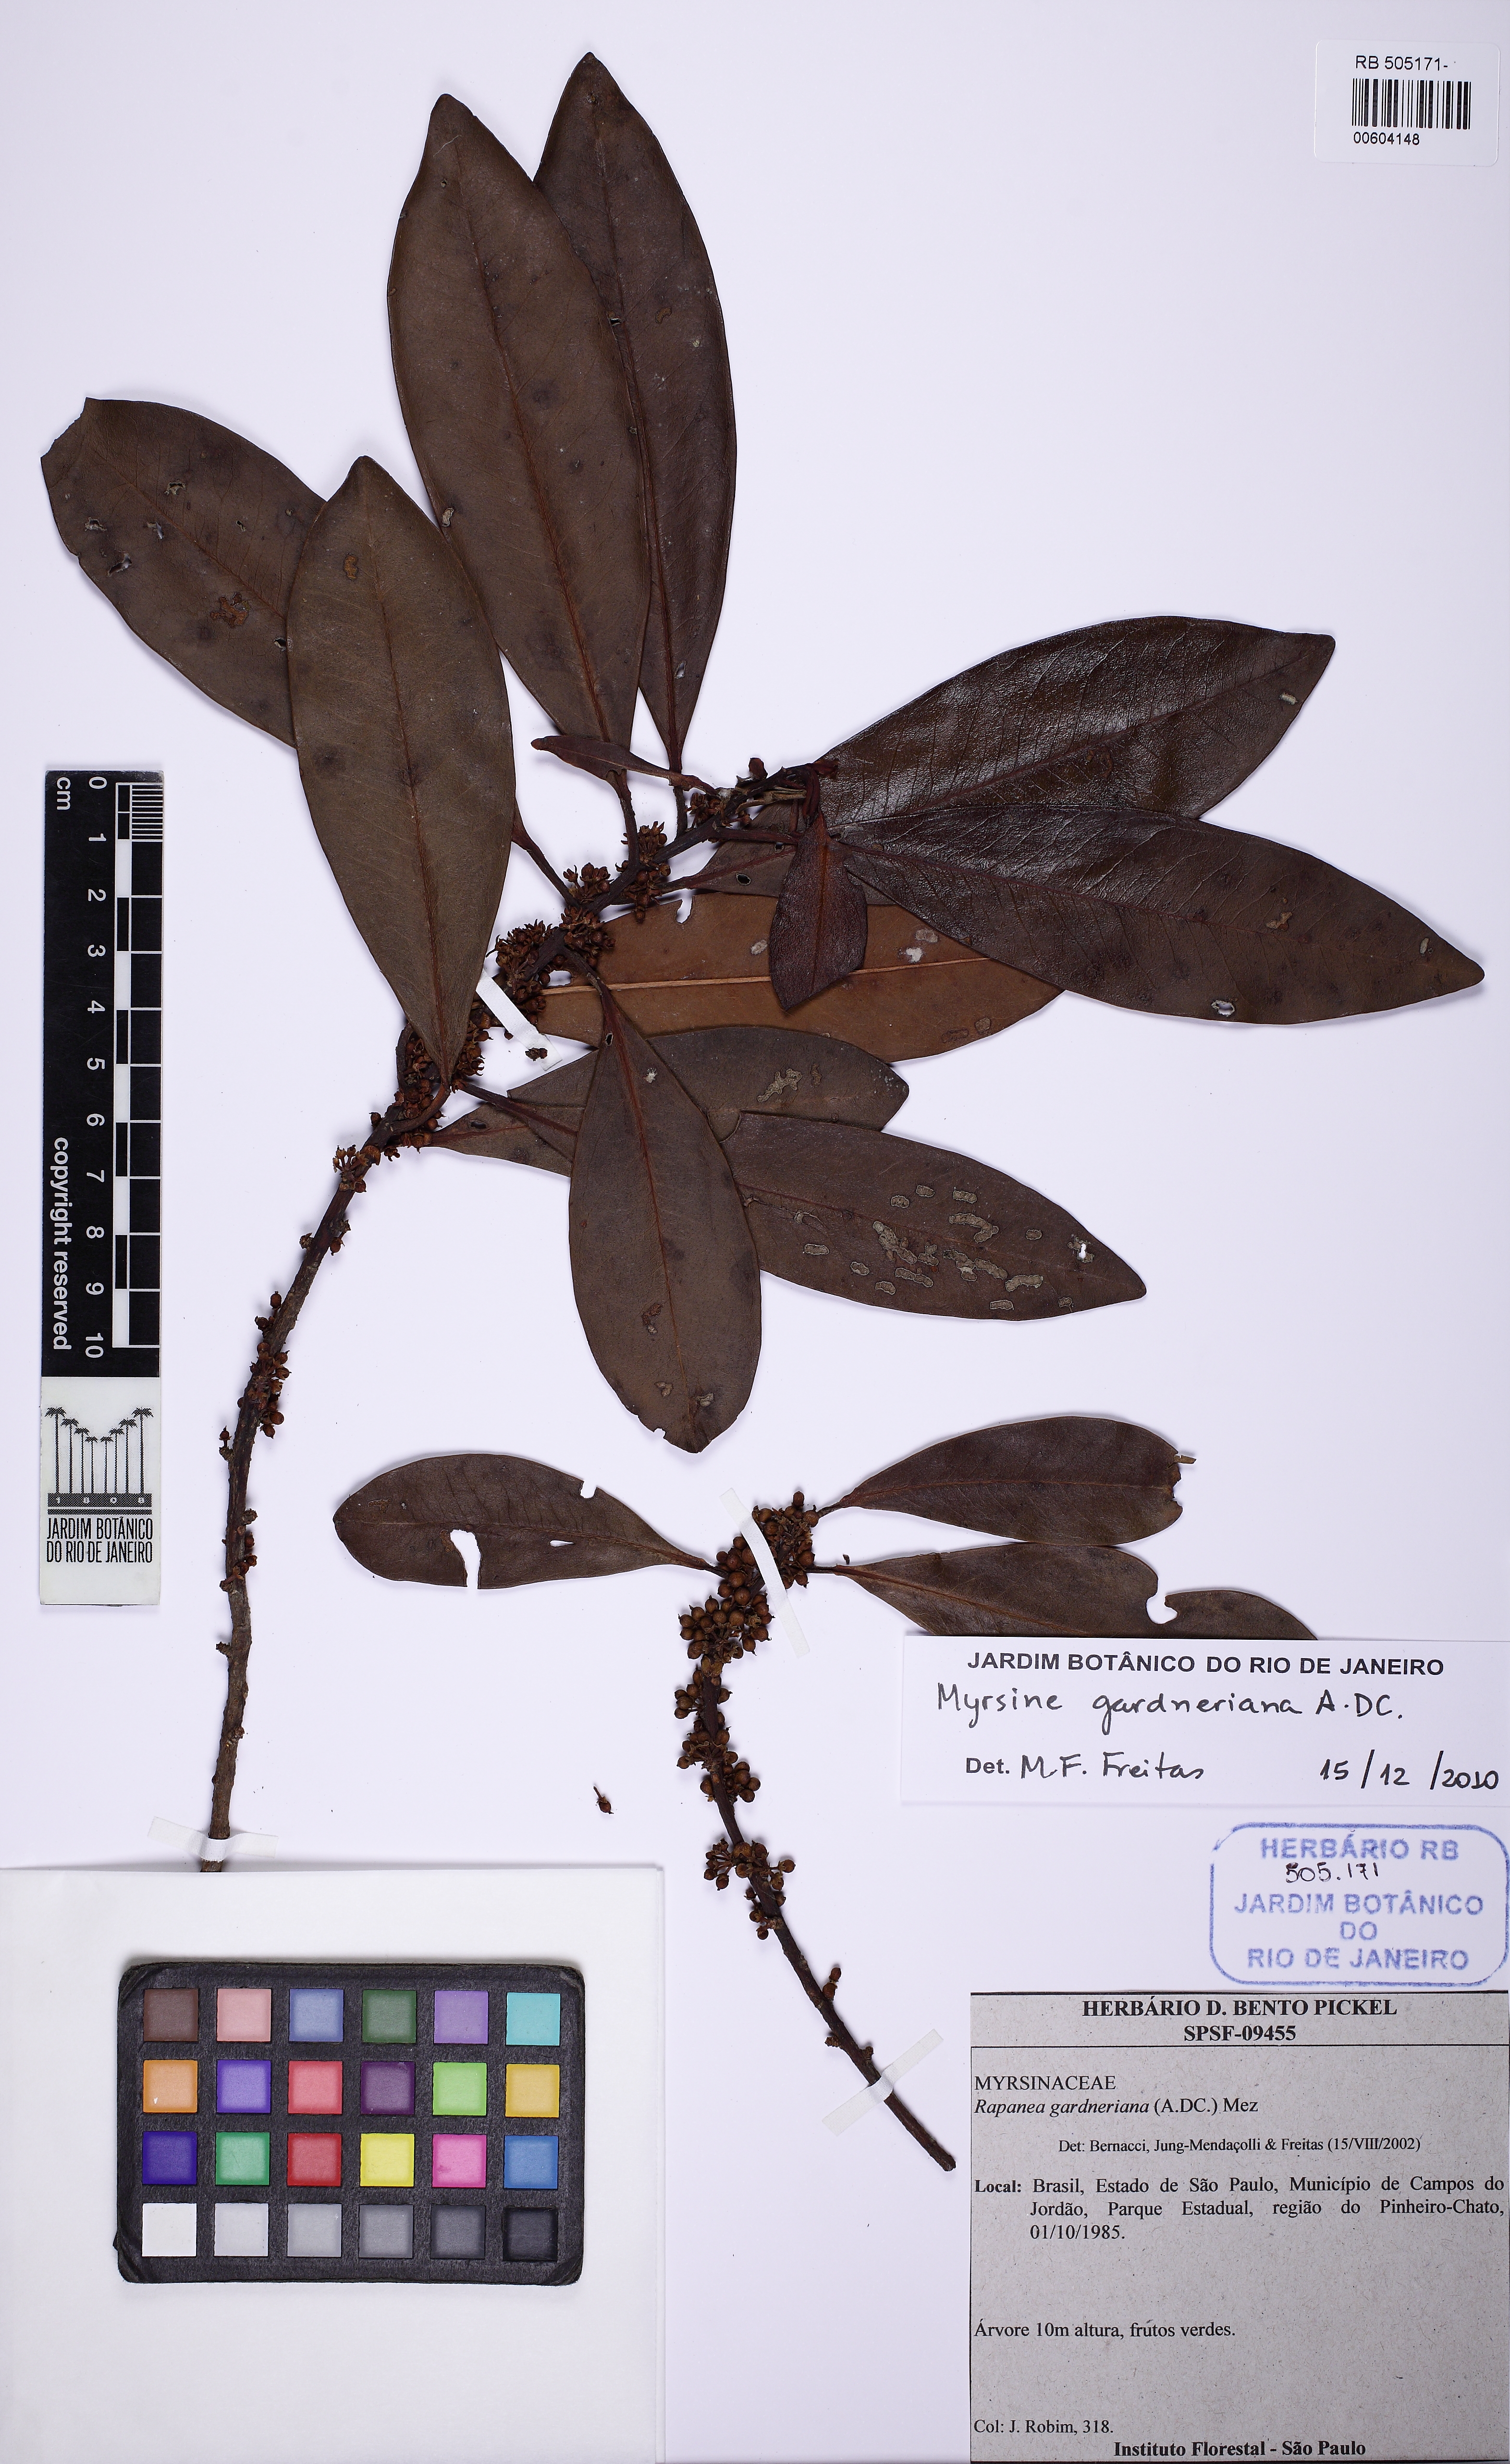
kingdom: Plantae
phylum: Tracheophyta
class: Magnoliopsida
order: Ericales
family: Primulaceae
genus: Myrsine
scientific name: Myrsine gardneriana
